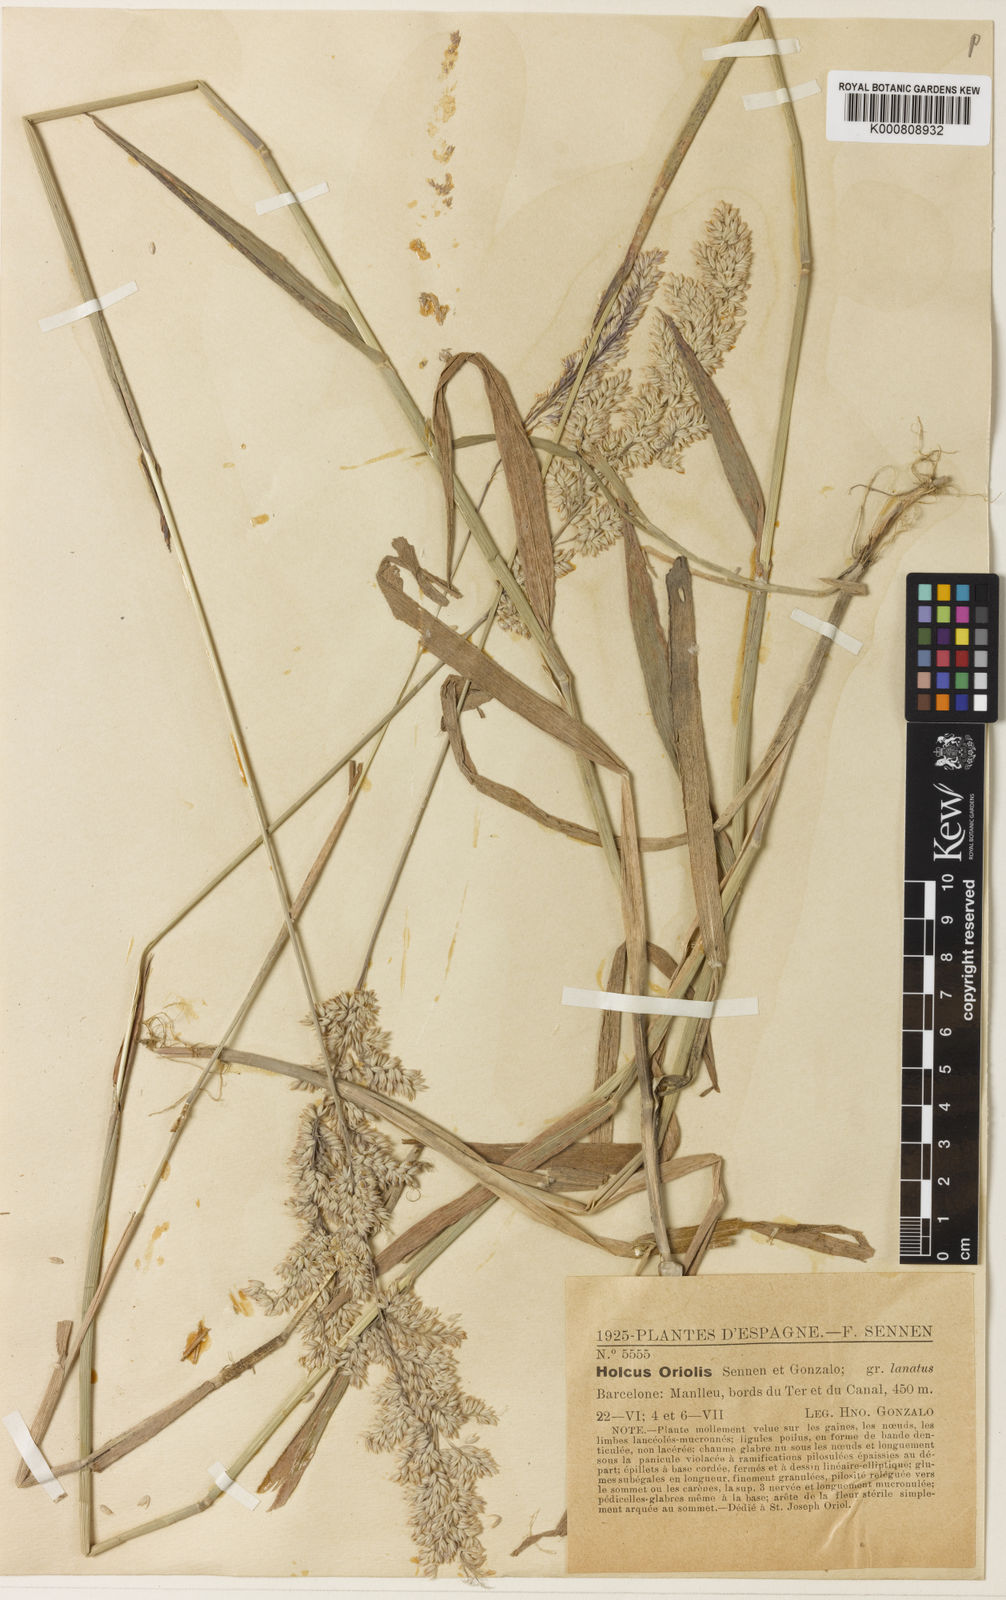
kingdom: Plantae
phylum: Tracheophyta
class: Liliopsida
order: Poales
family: Poaceae
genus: Holcus
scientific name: Holcus lanatus
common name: Yorkshire-fog
